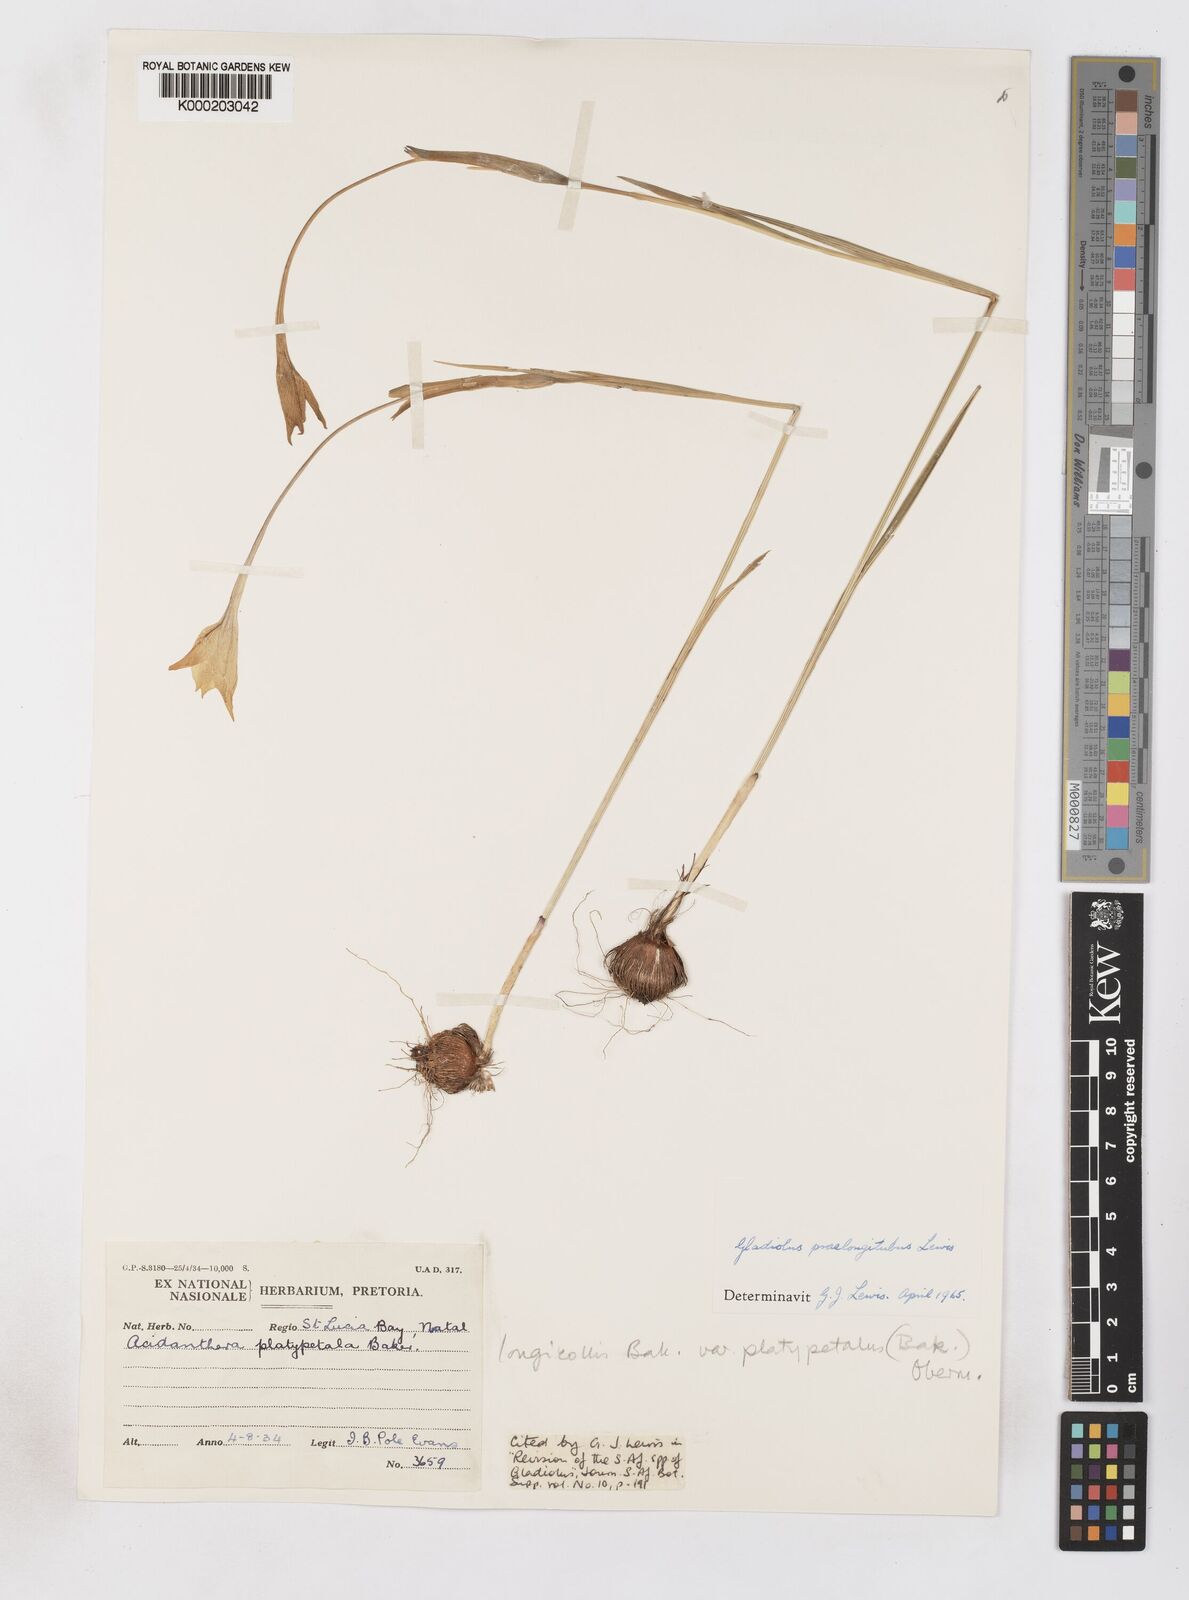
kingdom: Plantae
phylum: Tracheophyta
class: Liliopsida
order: Asparagales
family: Iridaceae
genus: Gladiolus
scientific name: Gladiolus longicollis
